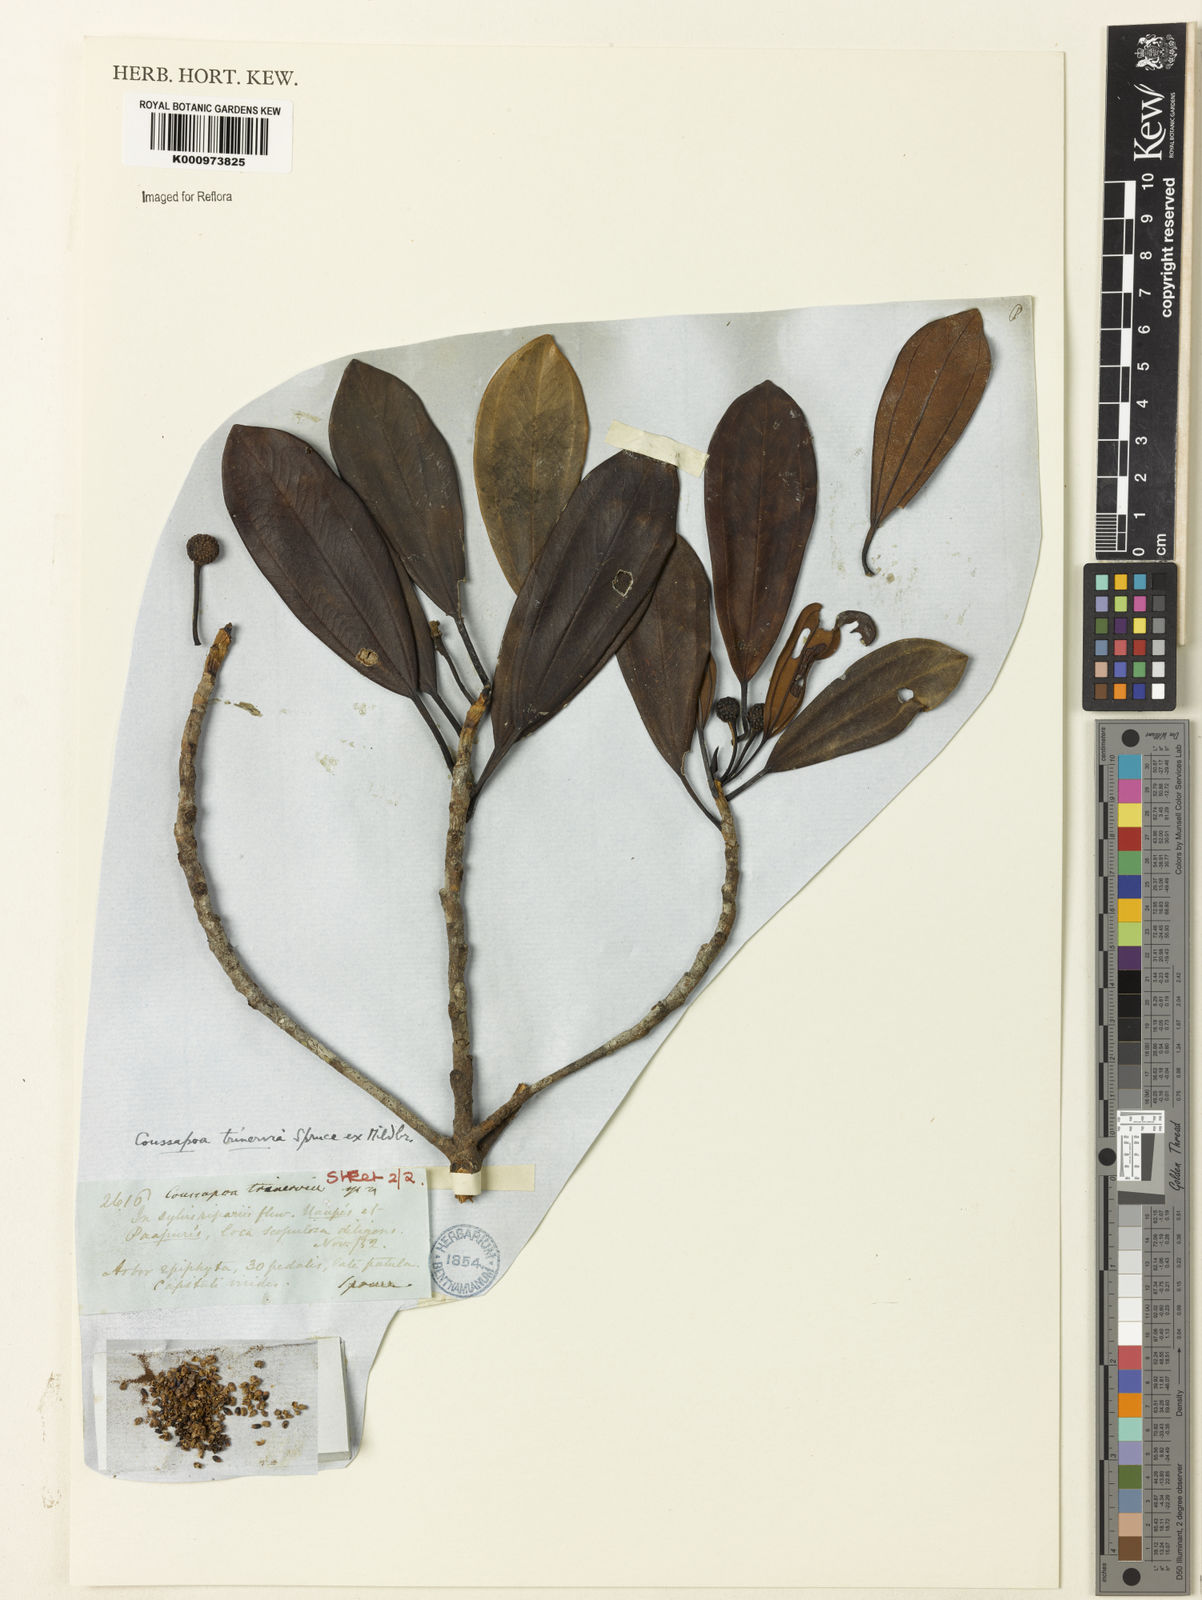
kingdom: Plantae
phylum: Tracheophyta
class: Magnoliopsida
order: Rosales
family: Urticaceae
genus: Coussapoa
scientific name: Coussapoa trinervia
